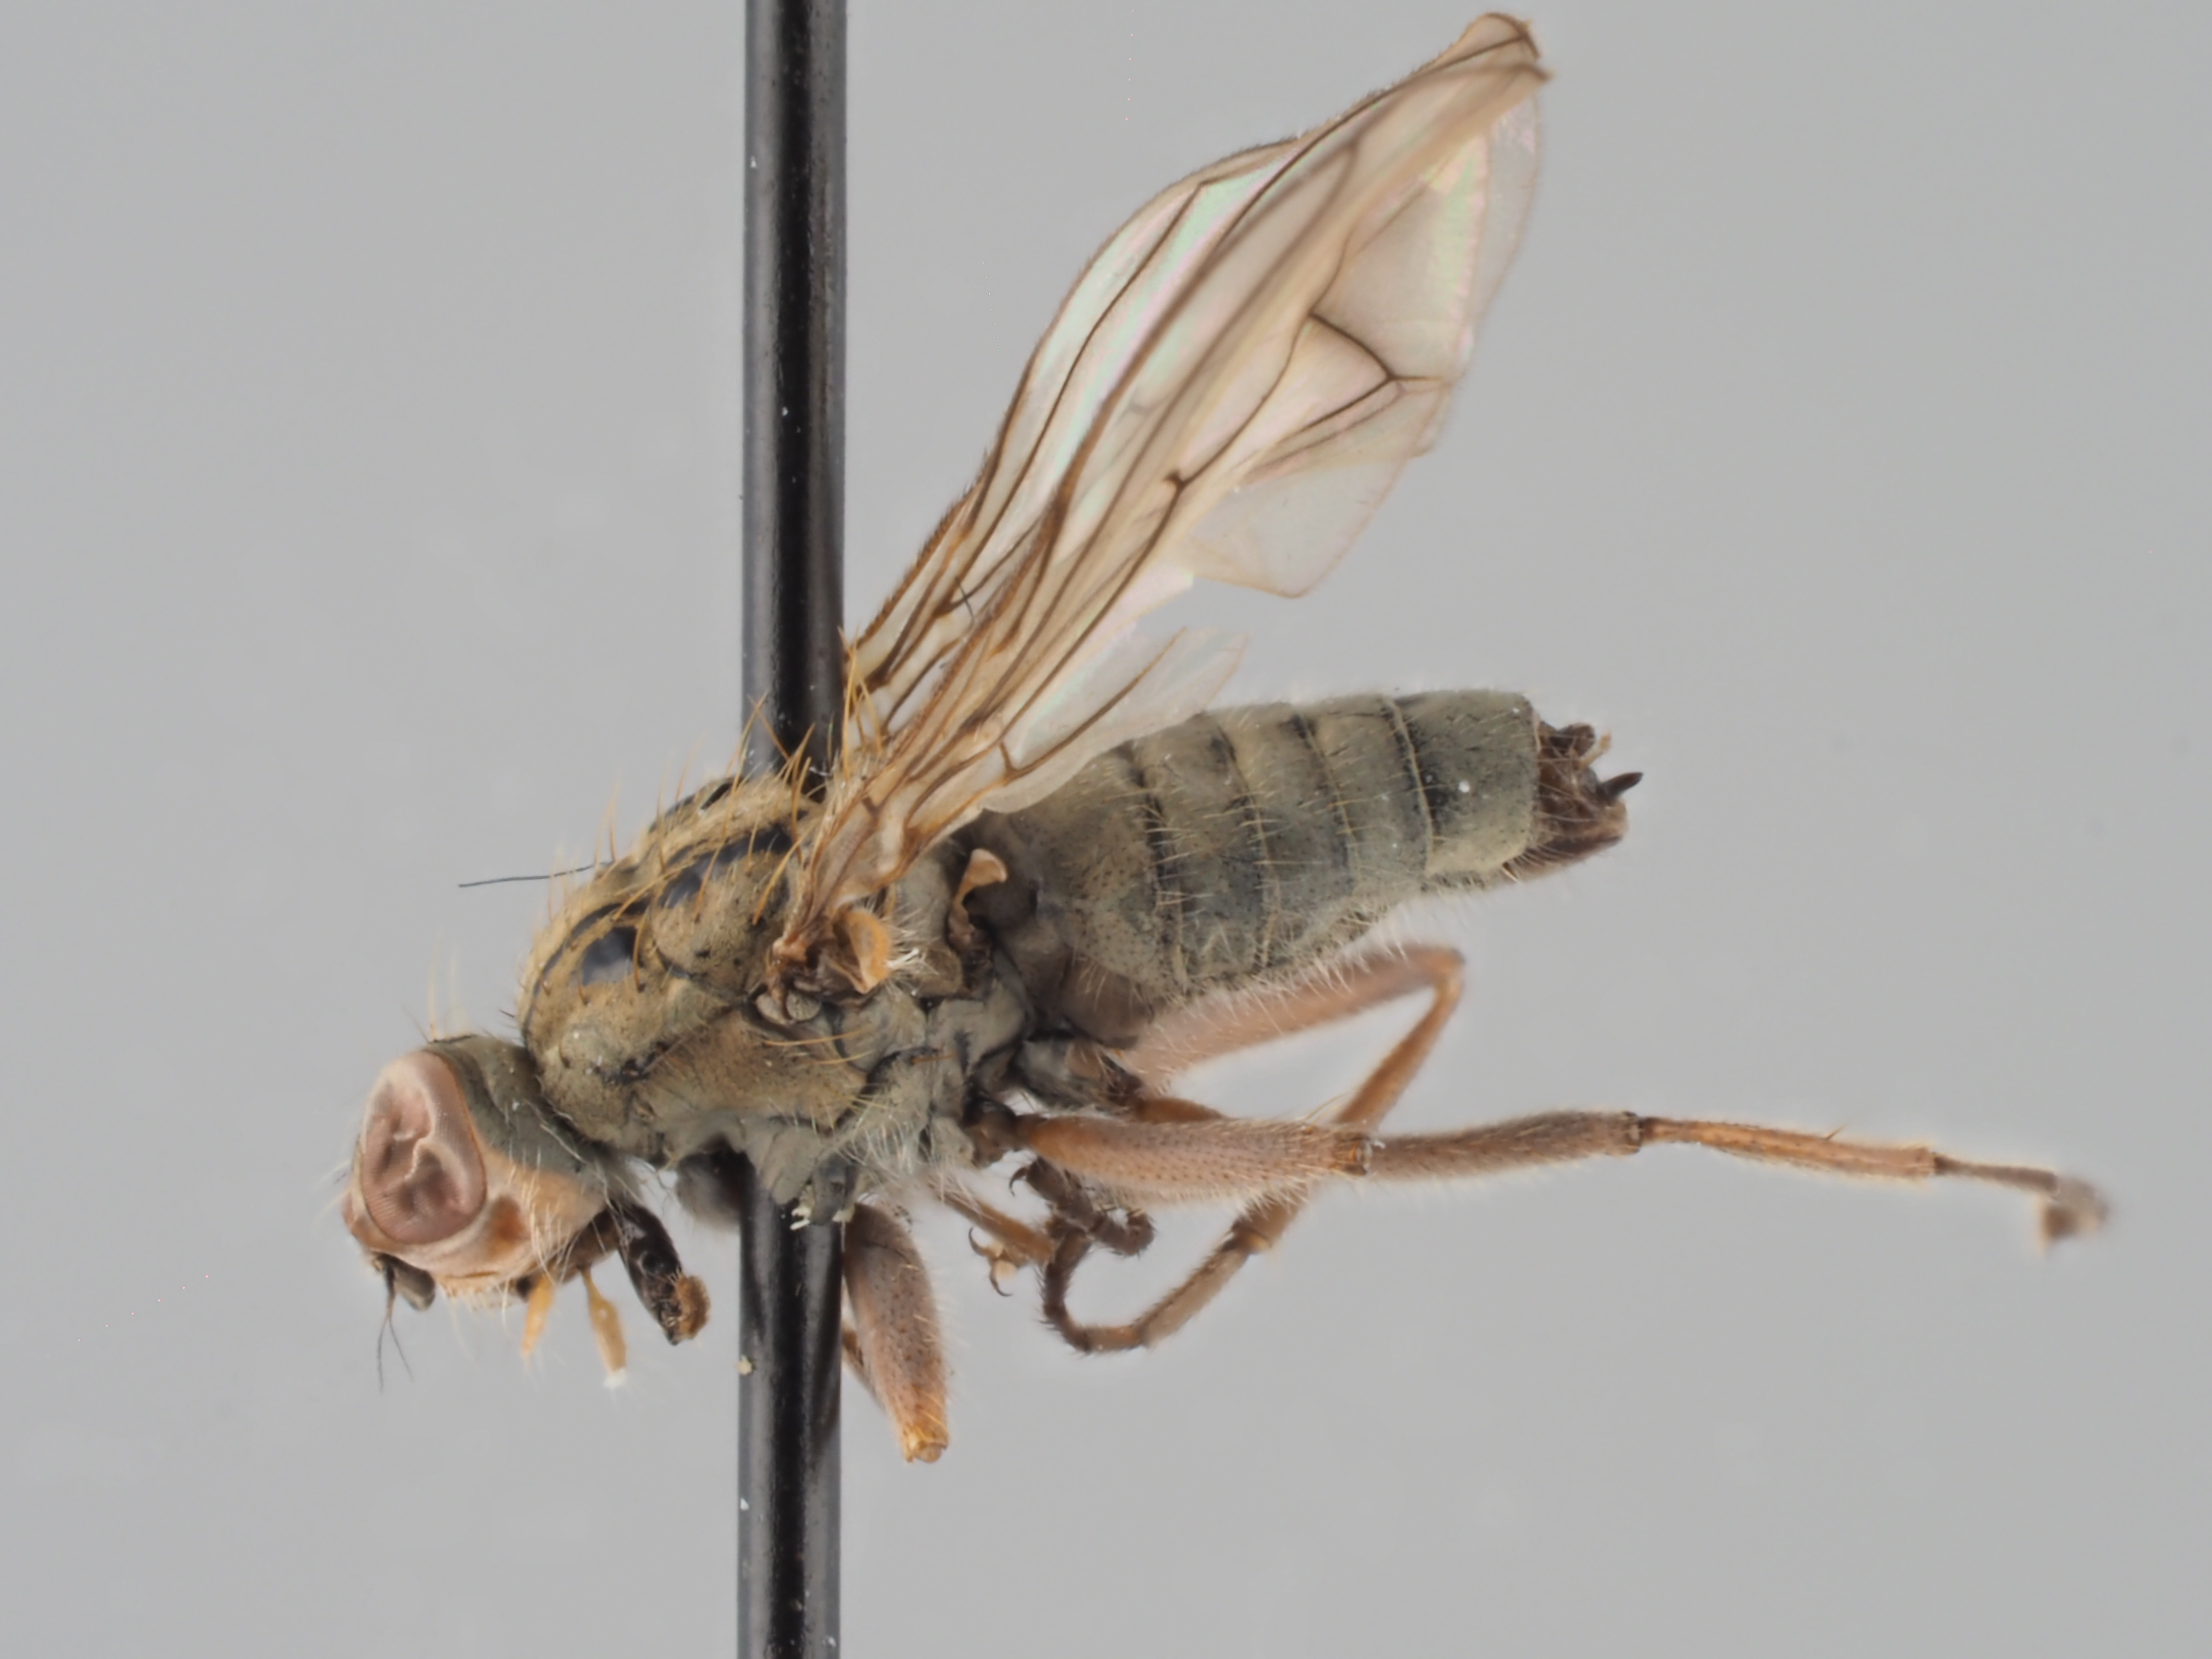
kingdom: Animalia
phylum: Arthropoda
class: Insecta
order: Diptera
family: Scathophagidae
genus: Microprosopa
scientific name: Microprosopa lineata
